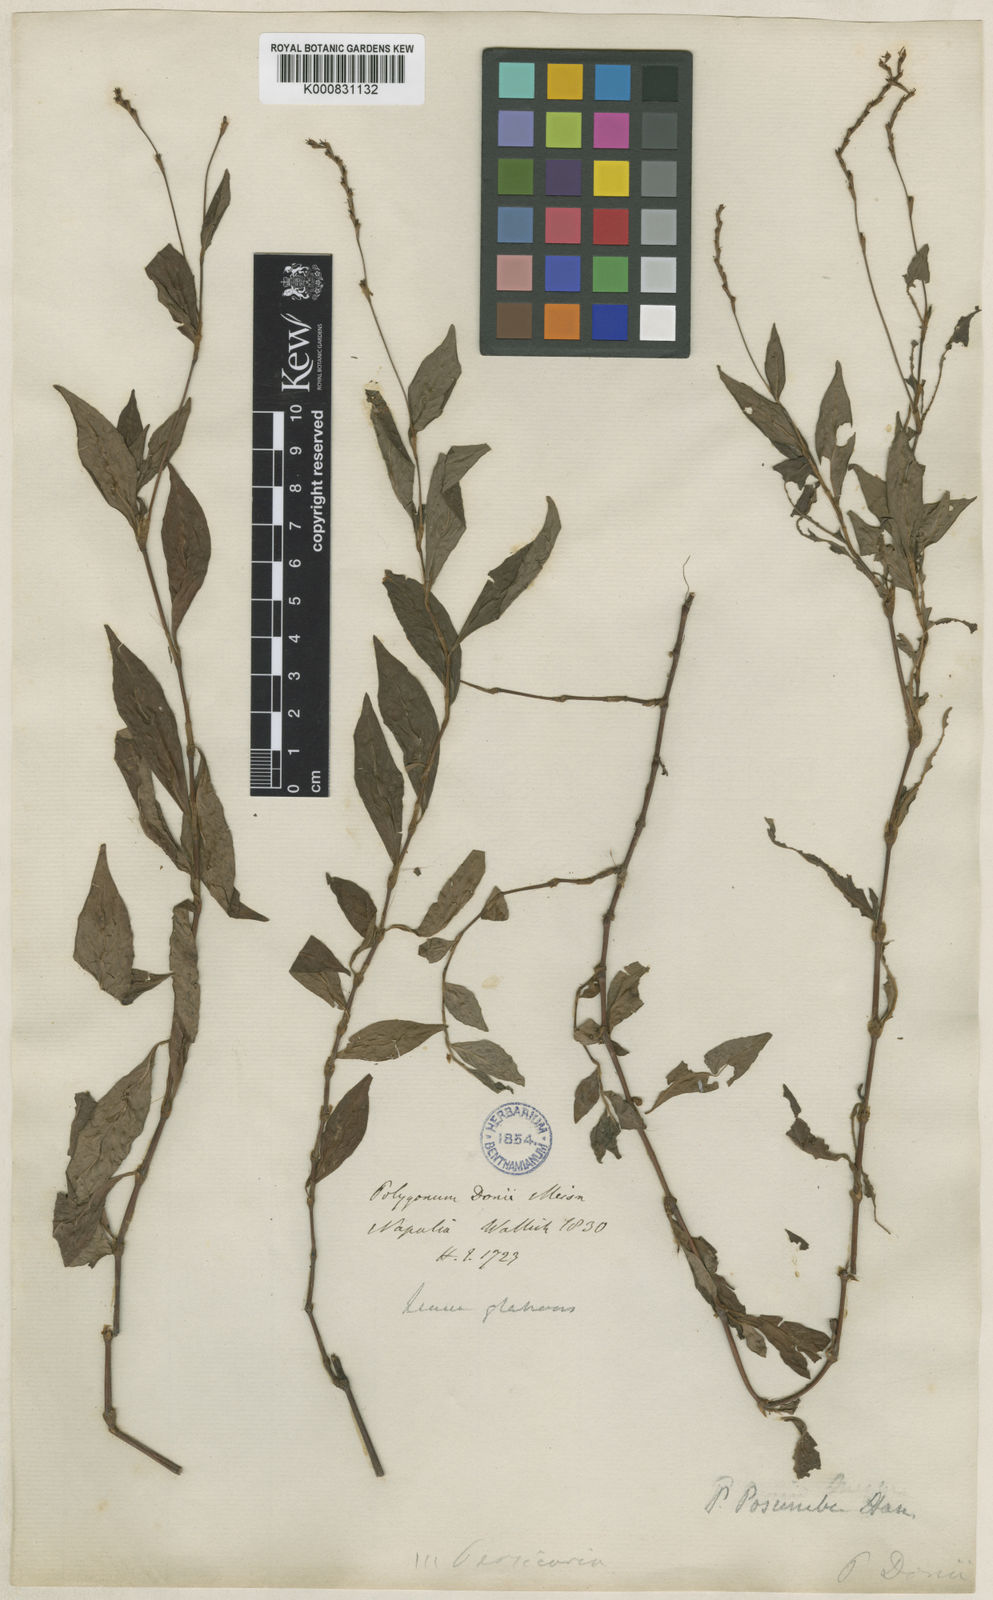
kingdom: Plantae
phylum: Tracheophyta
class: Magnoliopsida
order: Caryophyllales
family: Polygonaceae
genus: Persicaria
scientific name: Persicaria posumbu
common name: Oriental lady's thumb
